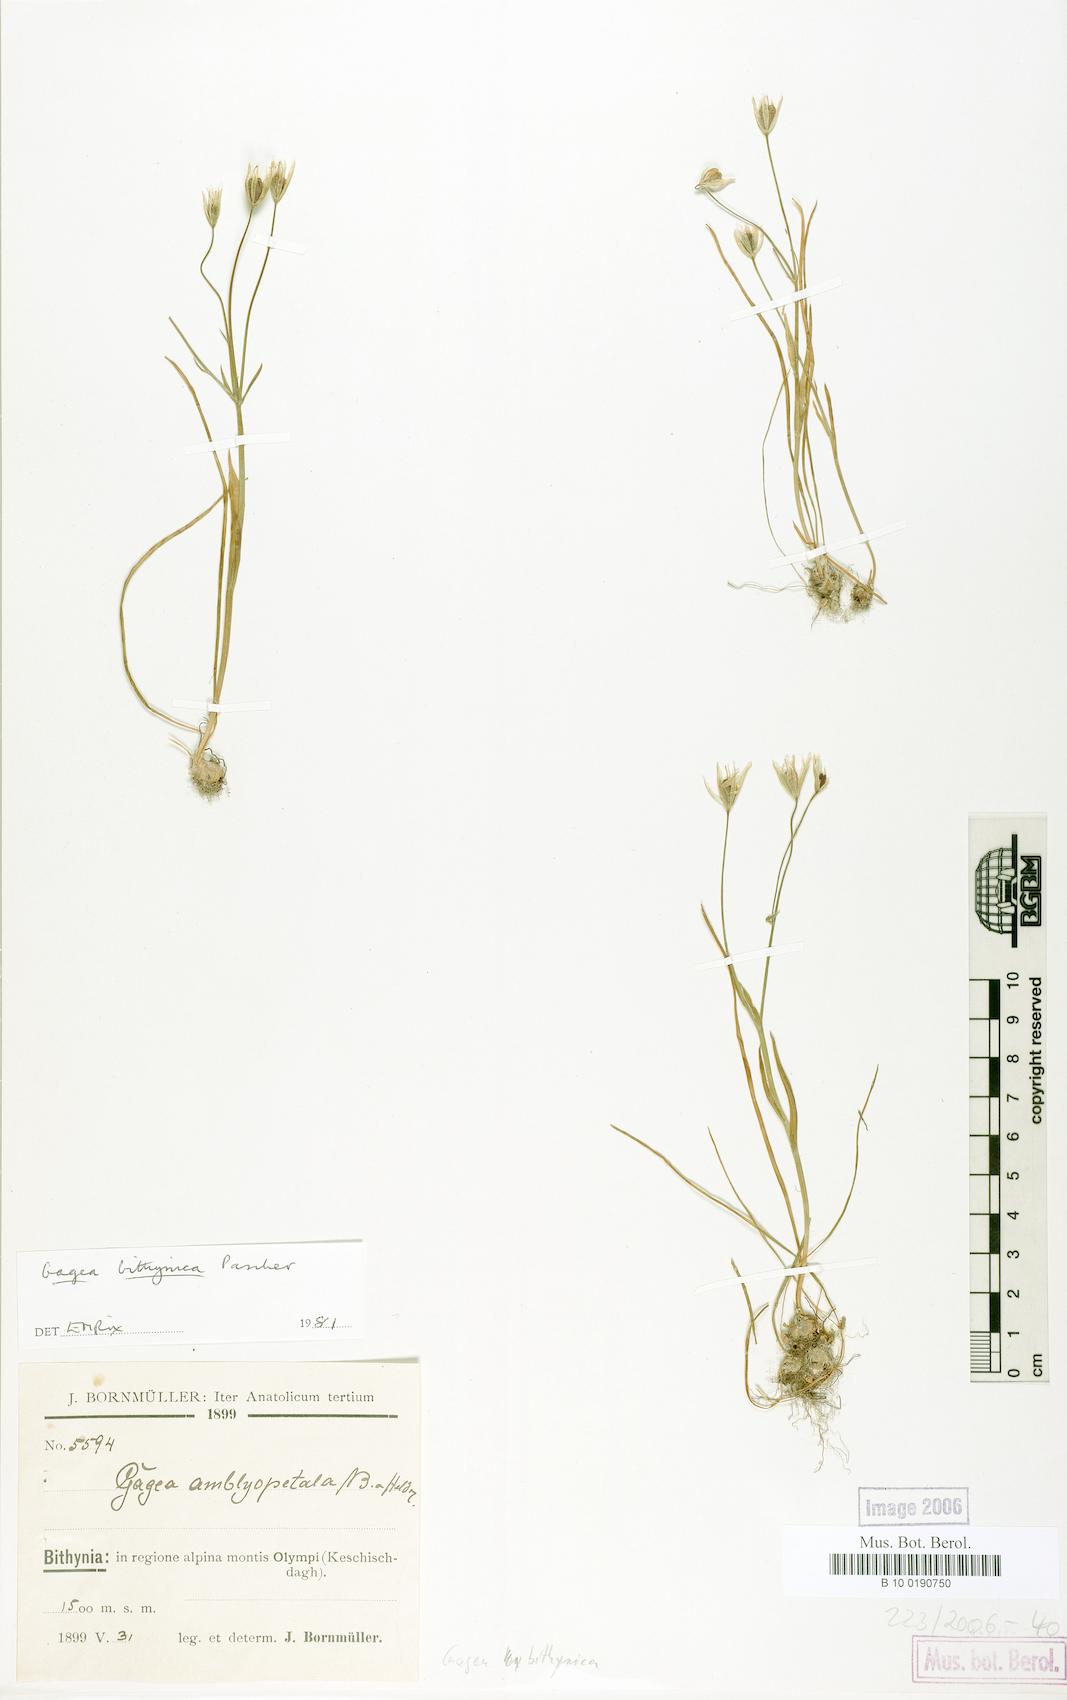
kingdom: Plantae
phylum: Tracheophyta
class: Liliopsida
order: Liliales
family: Liliaceae
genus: Gagea
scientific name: Gagea bithynica
